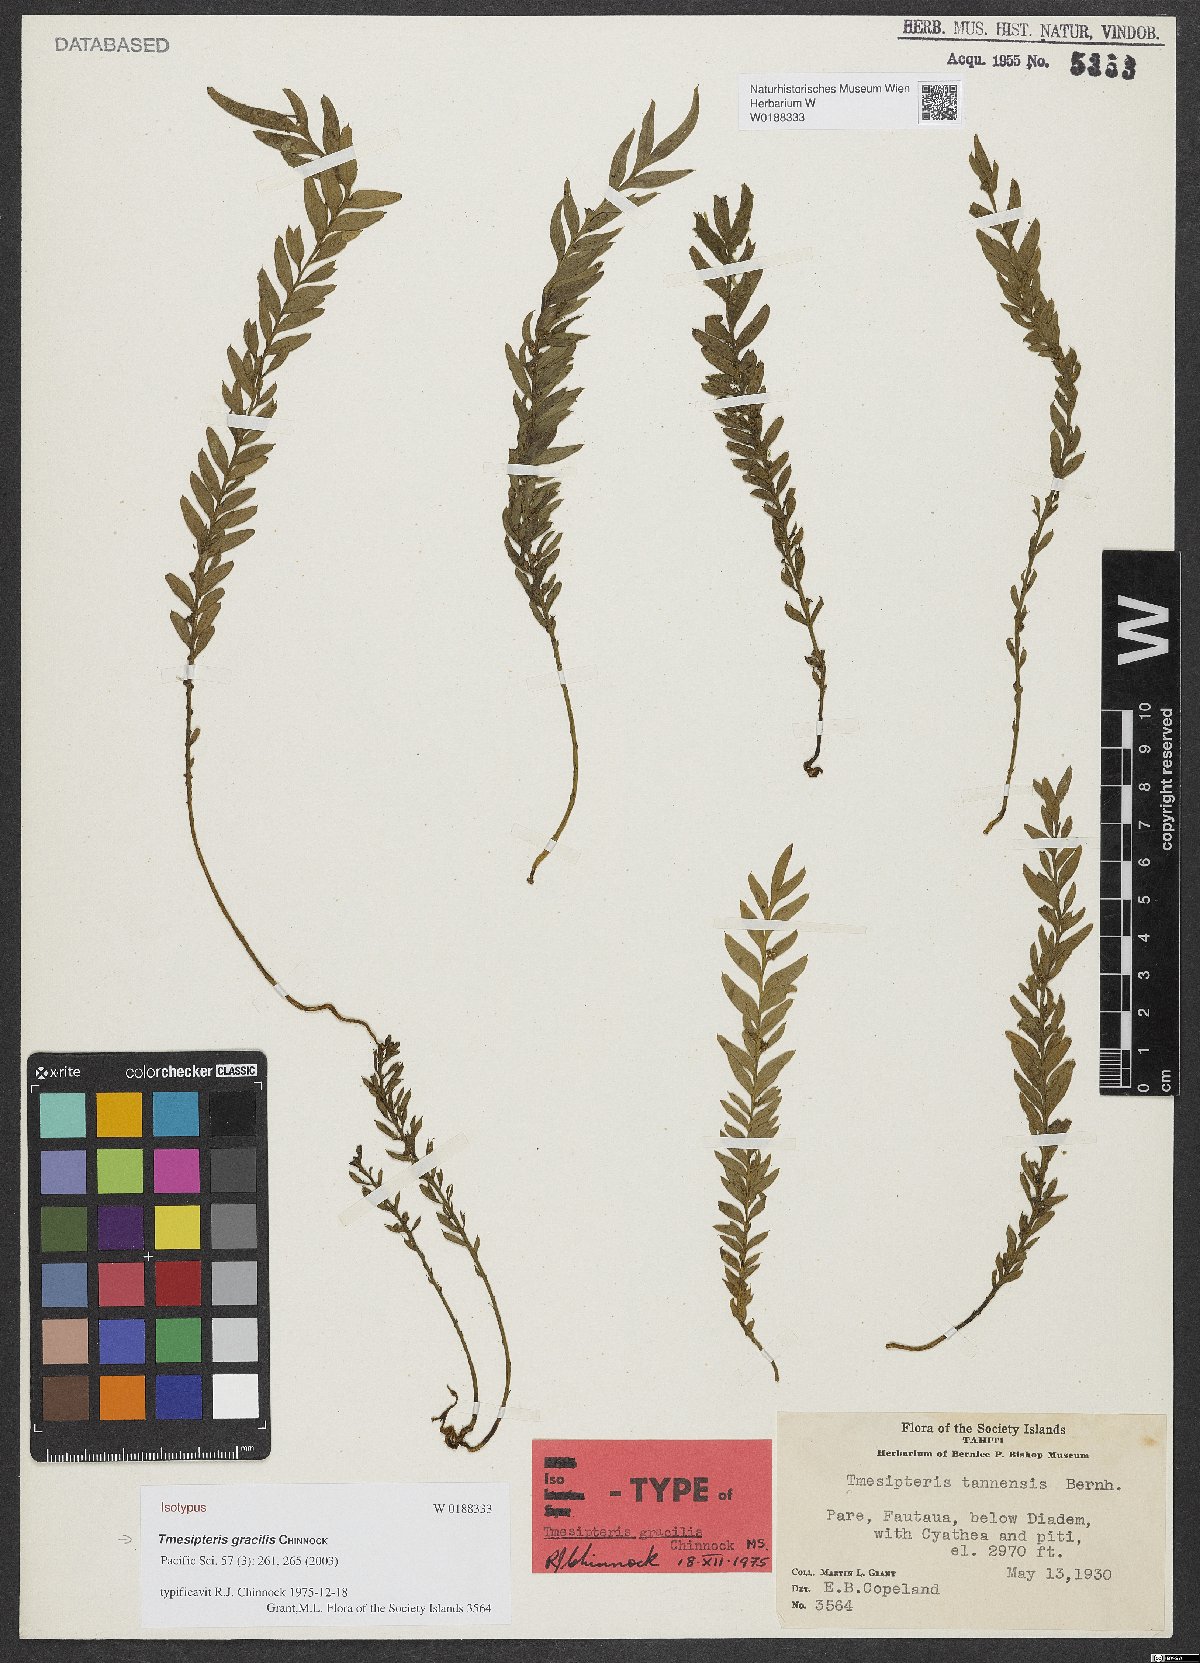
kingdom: Plantae
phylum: Tracheophyta
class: Polypodiopsida
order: Psilotales
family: Psilotaceae
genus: Tmesipteris
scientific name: Tmesipteris gracilis
